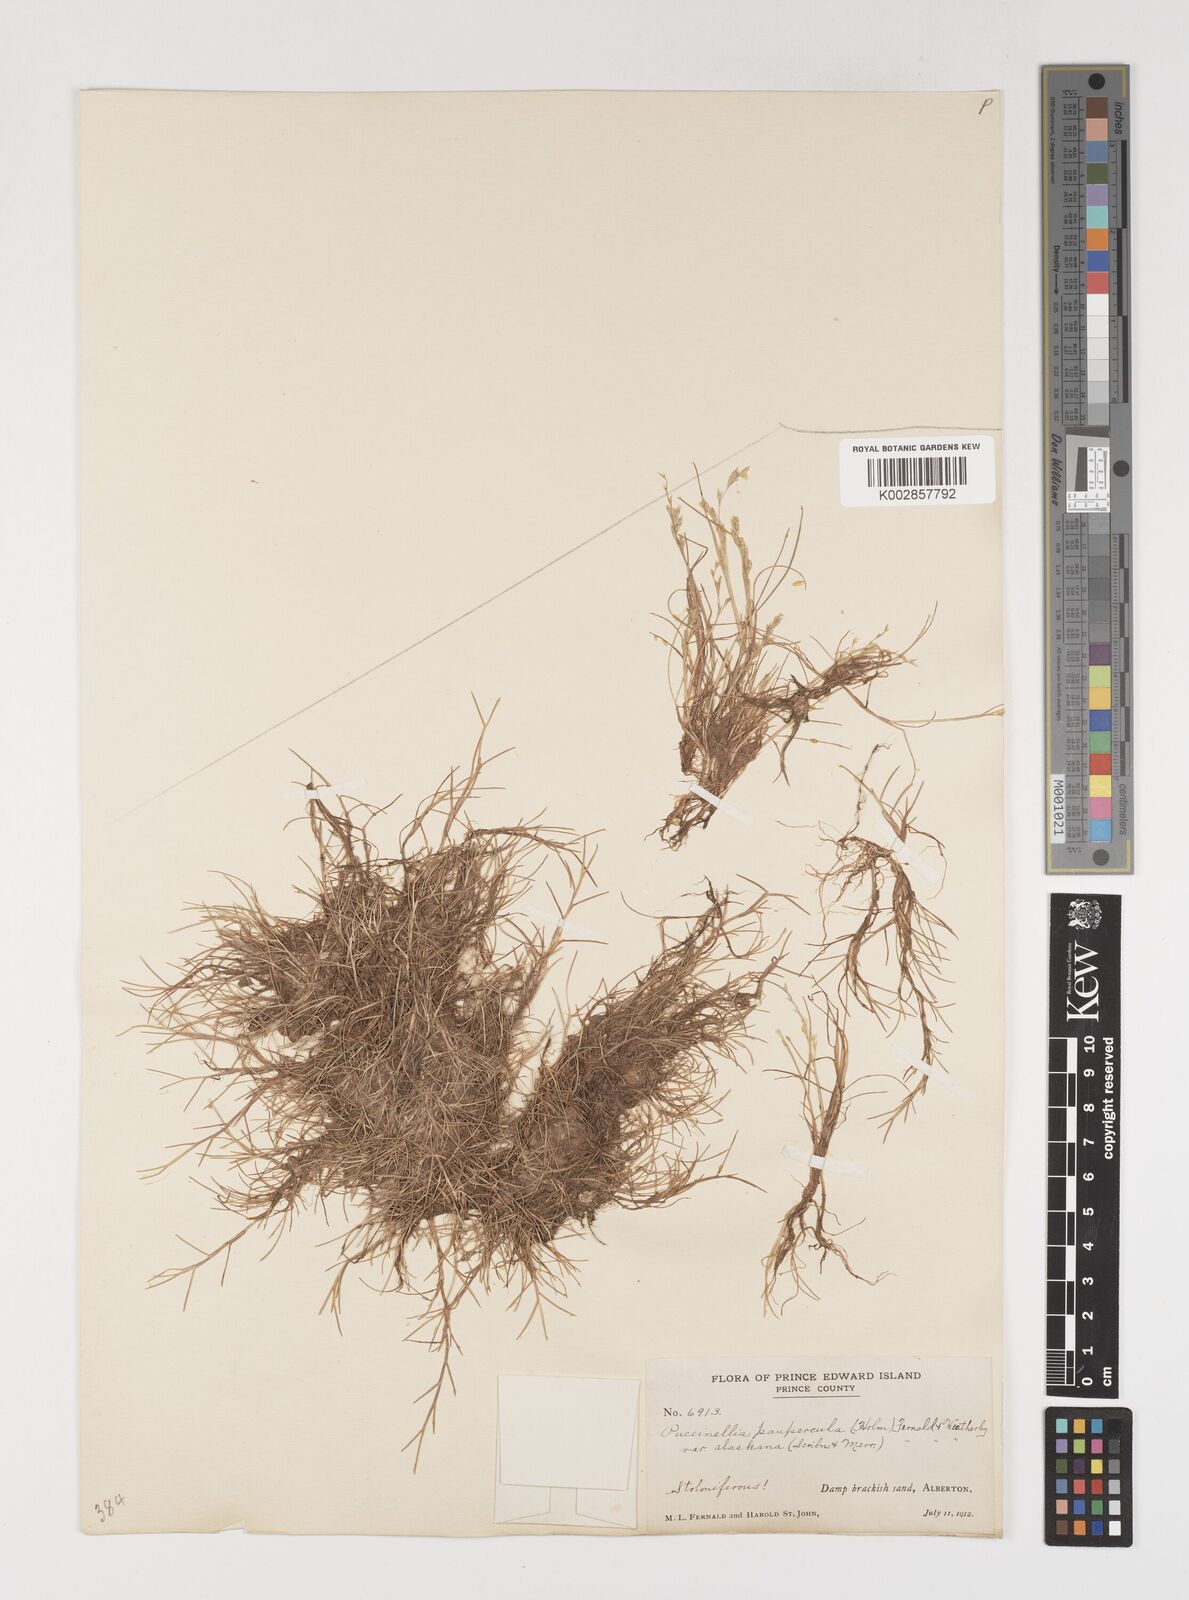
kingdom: Plantae
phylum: Tracheophyta
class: Liliopsida
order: Poales
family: Poaceae
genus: Puccinellia
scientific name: Puccinellia pumila
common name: Dwarf alkaligrass
